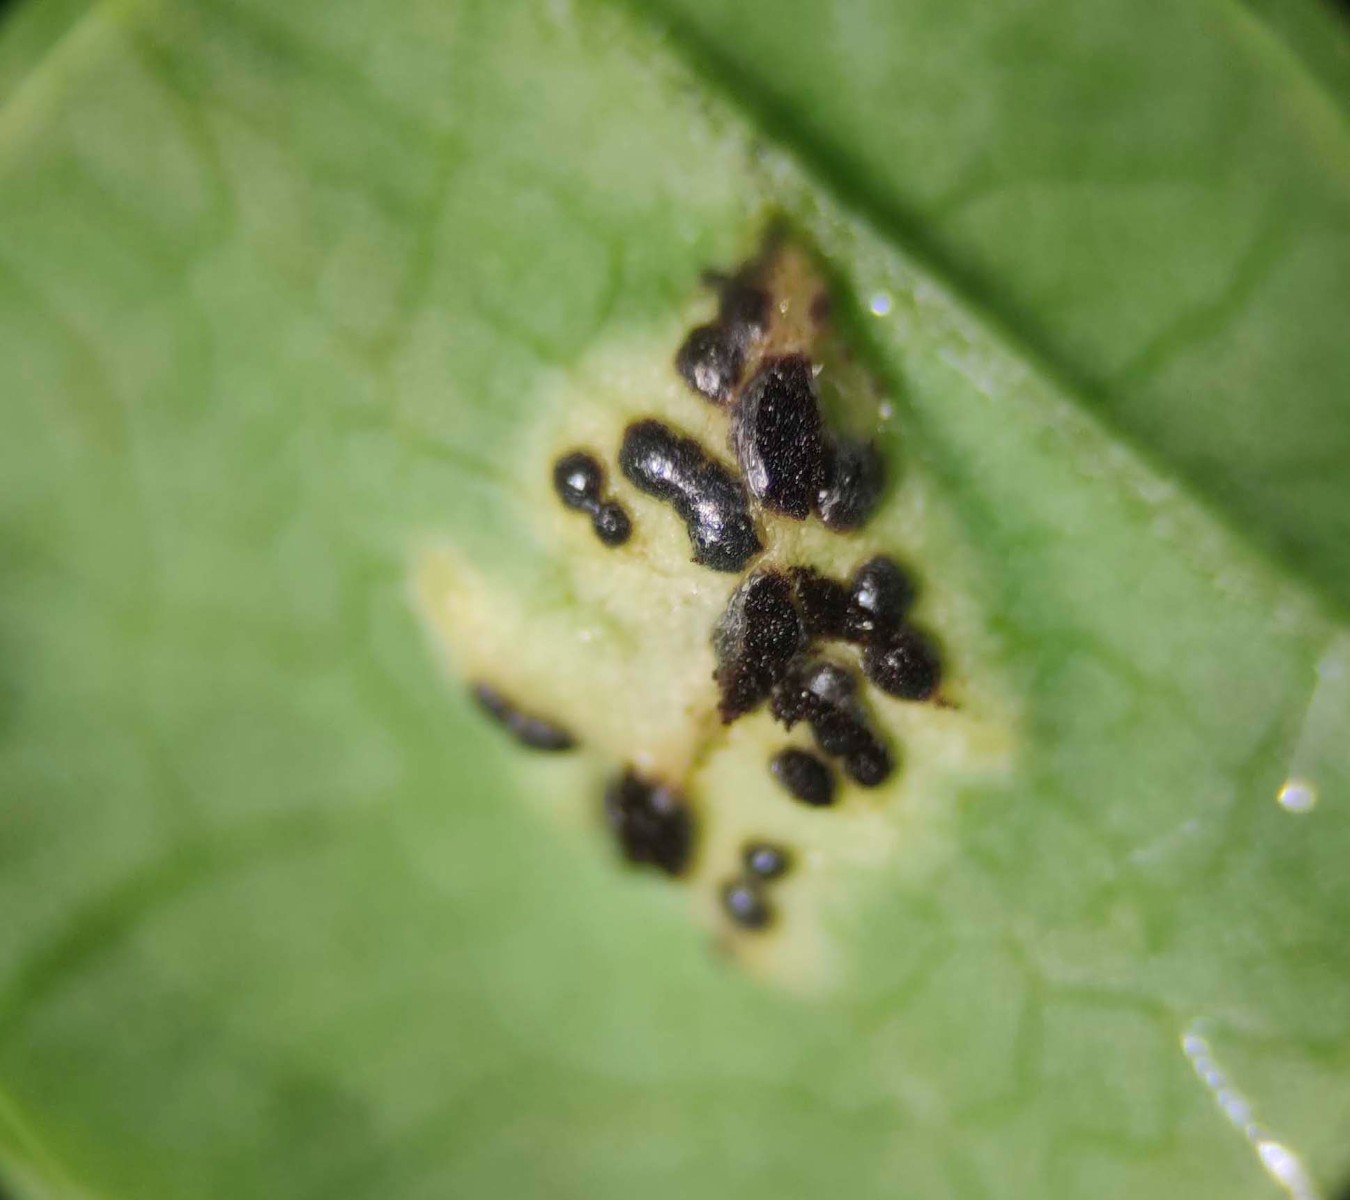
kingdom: Fungi
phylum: Basidiomycota
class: Pucciniomycetes
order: Pucciniales
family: Pucciniaceae
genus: Puccinia
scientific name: Puccinia
